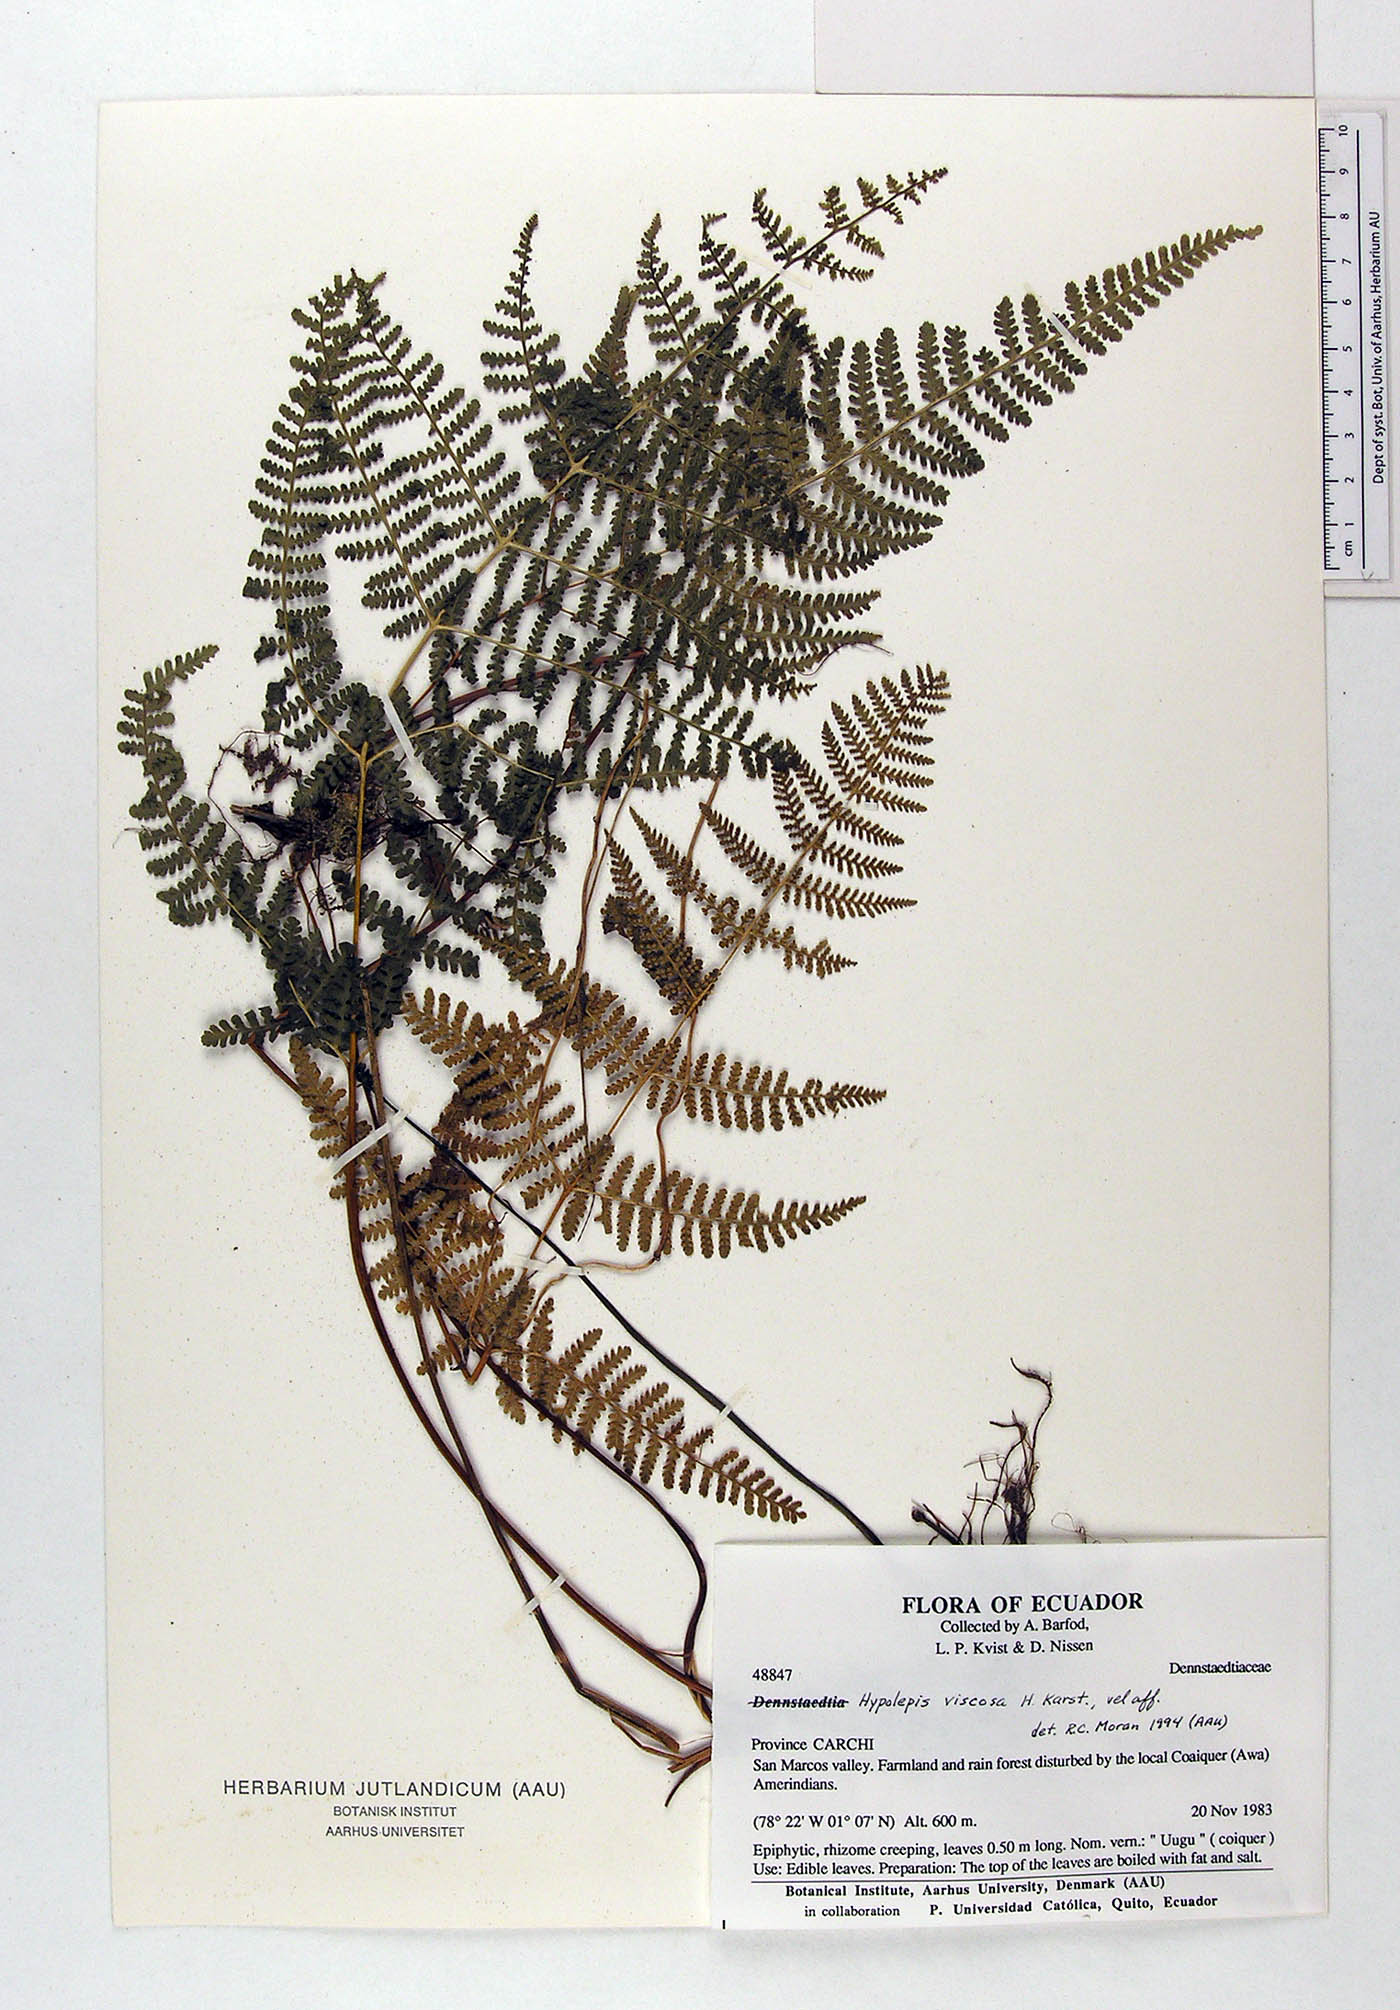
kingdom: Plantae
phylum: Tracheophyta
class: Polypodiopsida
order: Polypodiales
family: Dennstaedtiaceae
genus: Blotiella
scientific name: Blotiella aurita
